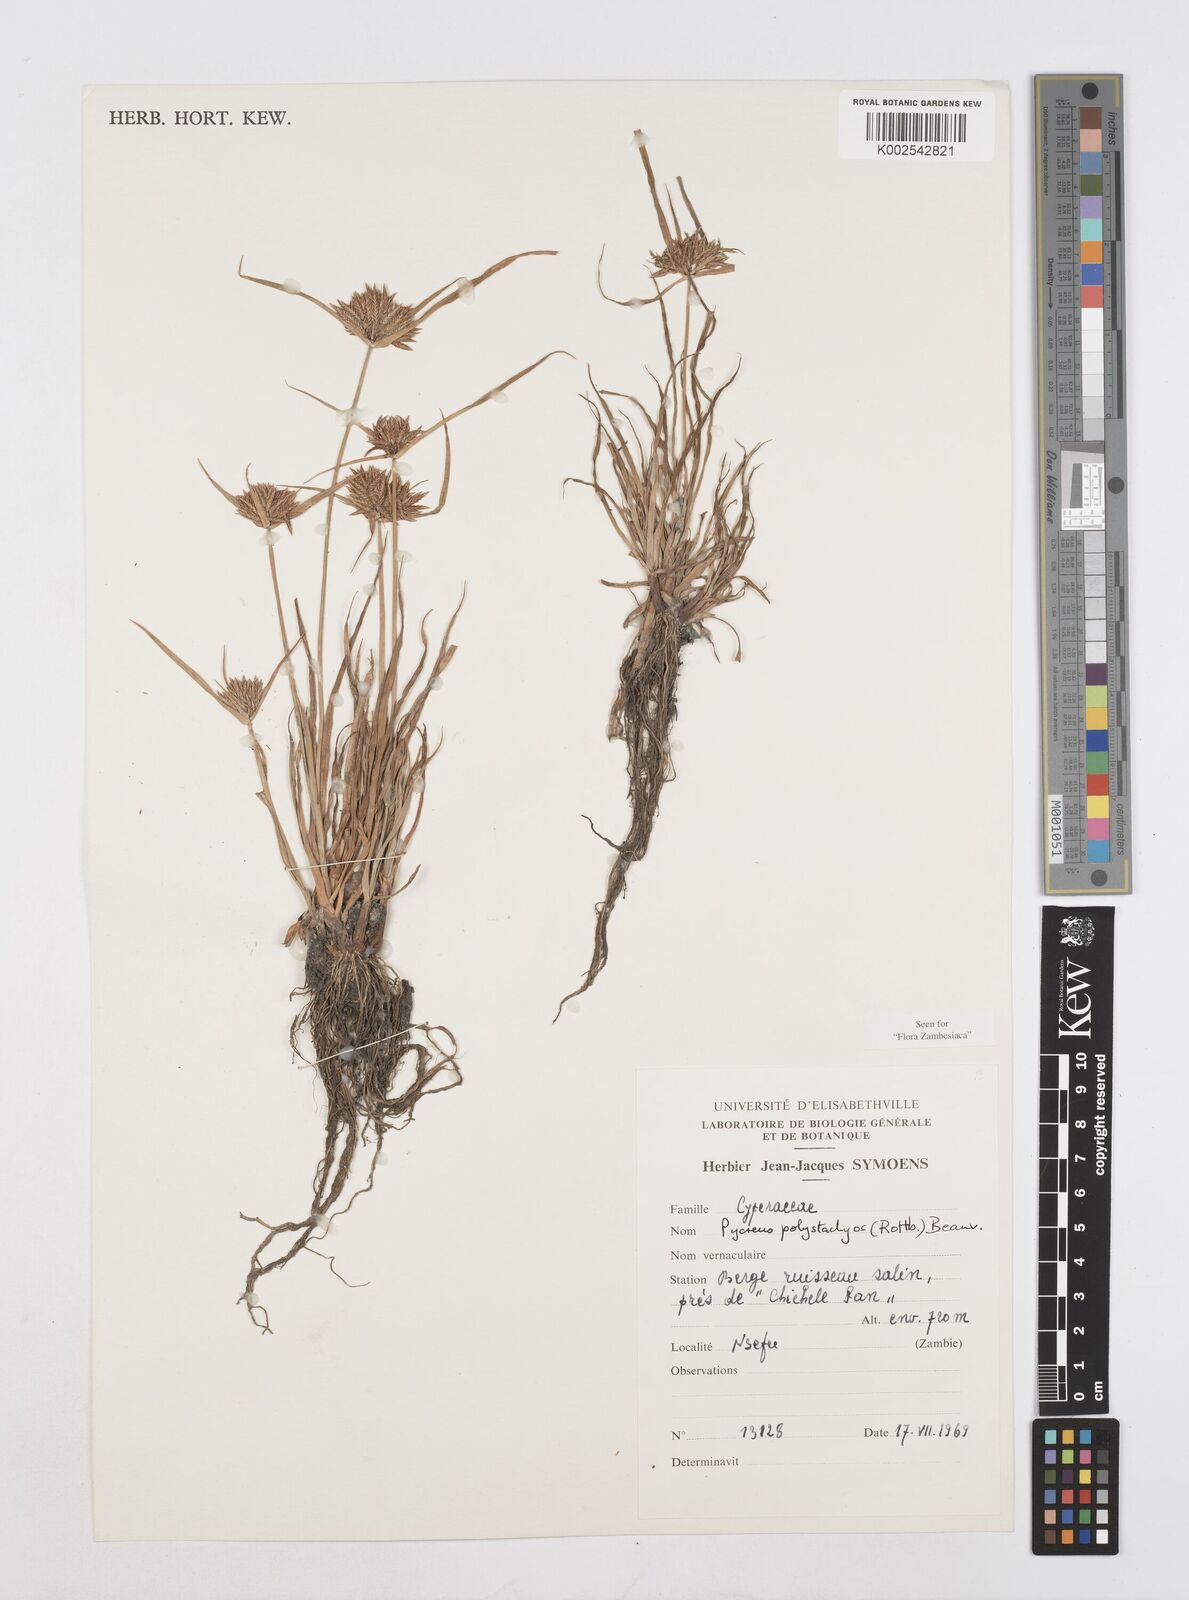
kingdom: Plantae
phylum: Tracheophyta
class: Liliopsida
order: Poales
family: Cyperaceae
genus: Cyperus
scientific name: Cyperus polystachyos
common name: Bunchy flat sedge
